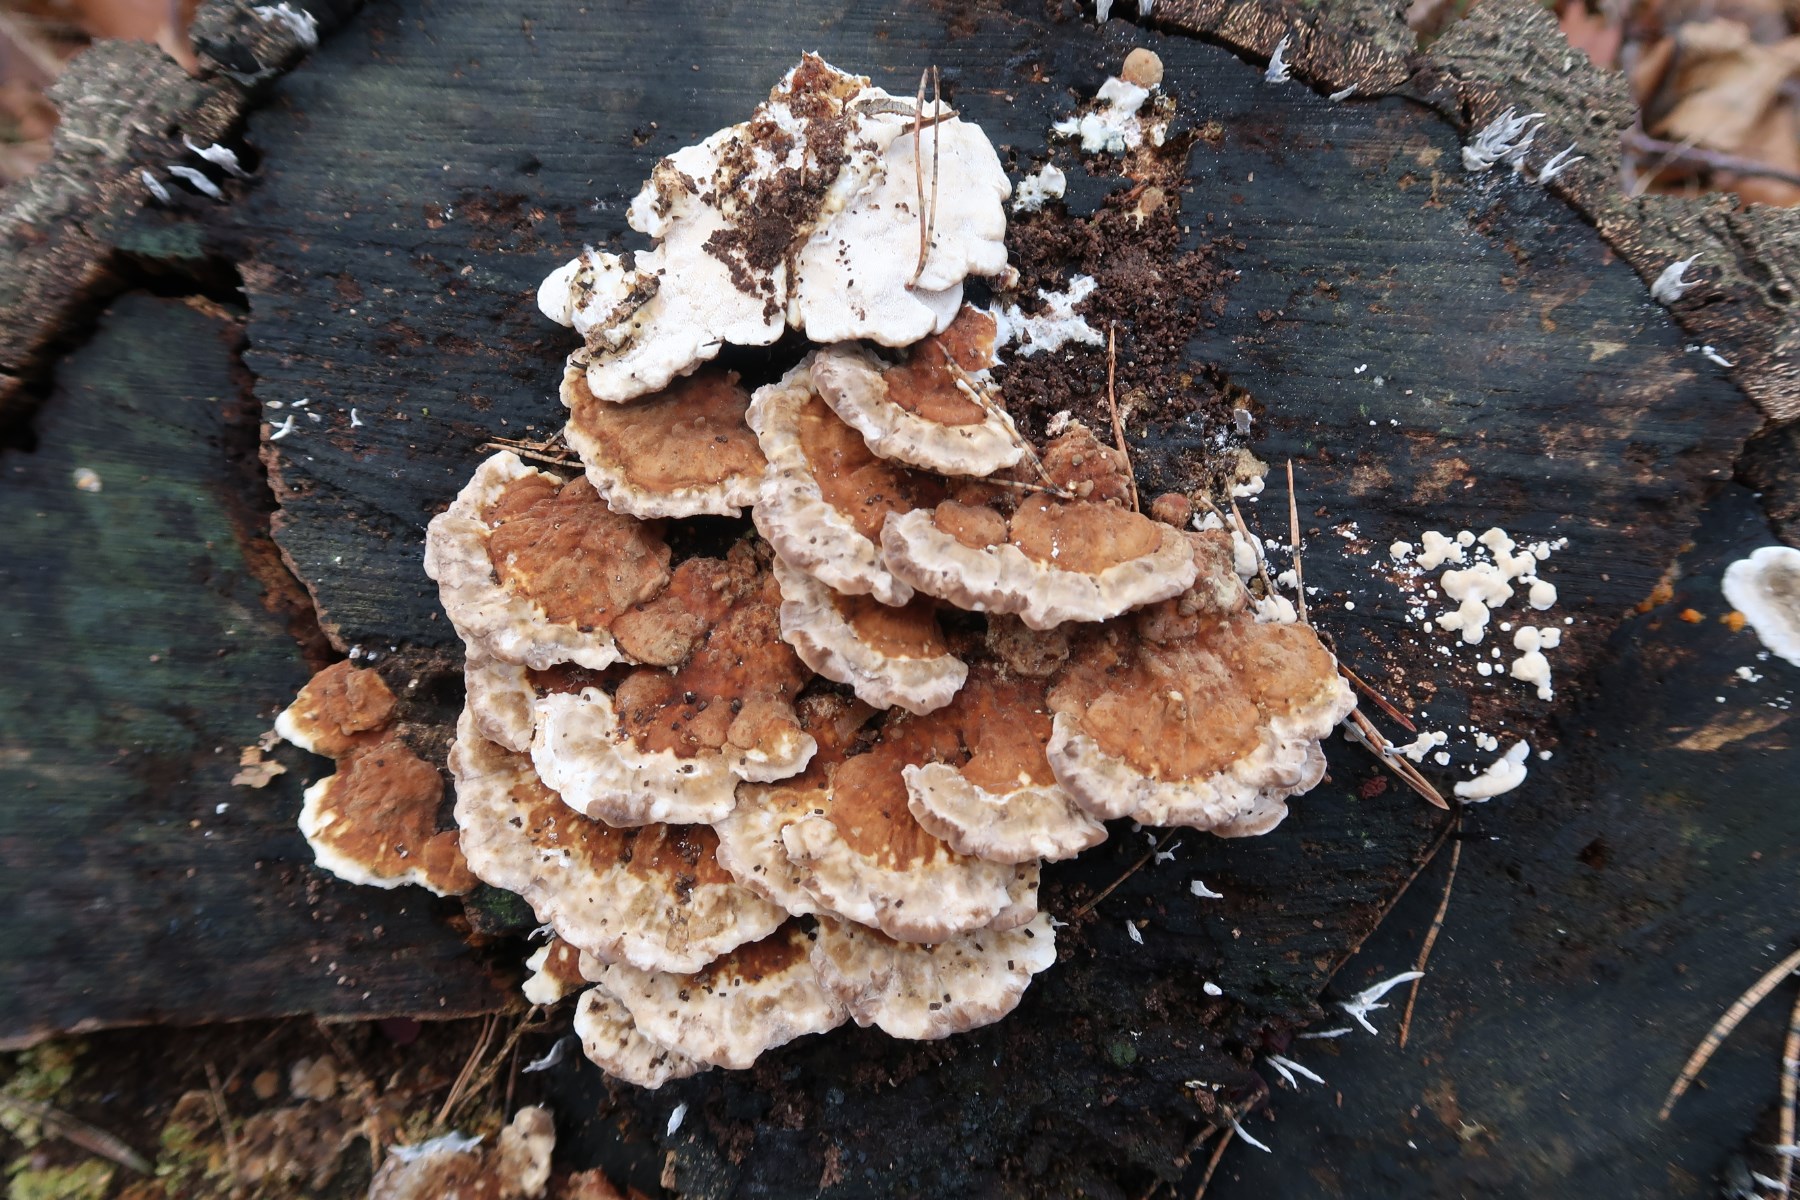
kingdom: Fungi
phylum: Basidiomycota
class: Agaricomycetes
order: Polyporales
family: Polyporaceae
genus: Trametes
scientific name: Trametes ochracea
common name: bæltet læderporesvamp
